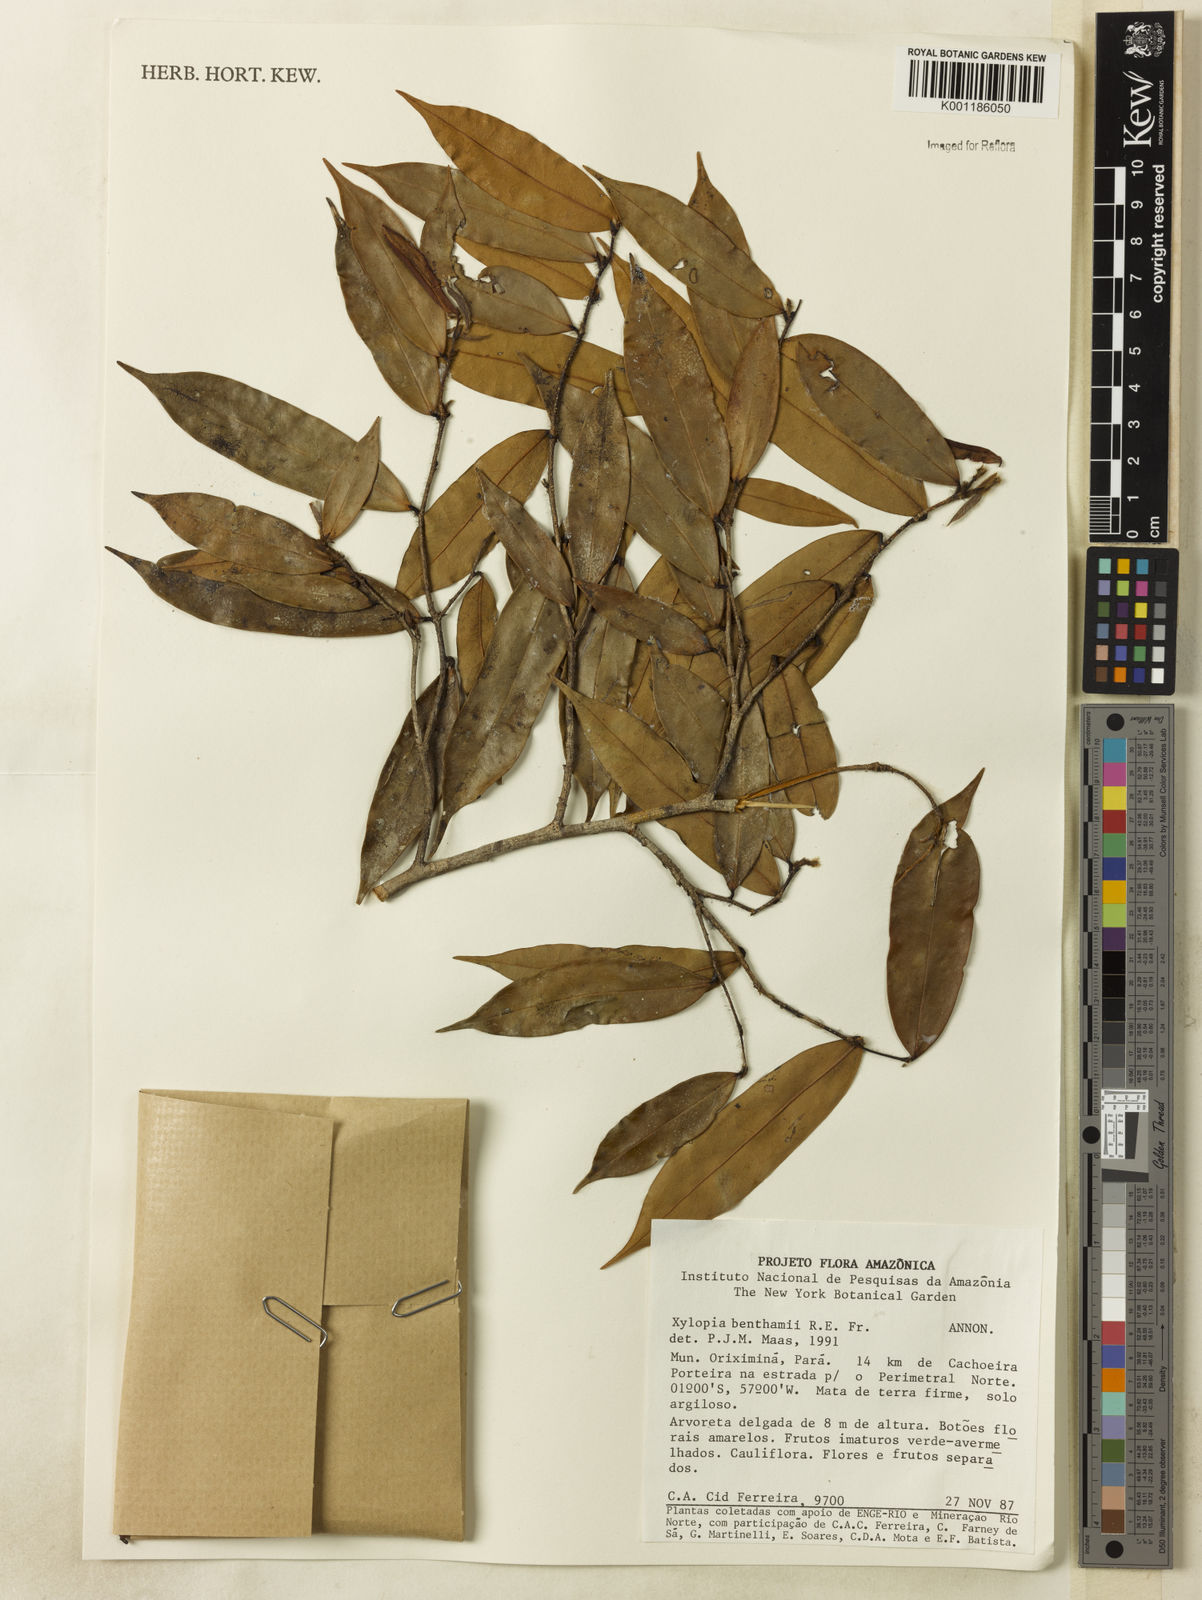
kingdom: Plantae
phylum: Tracheophyta
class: Magnoliopsida
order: Magnoliales
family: Annonaceae
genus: Xylopia
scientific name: Xylopia benthamii
